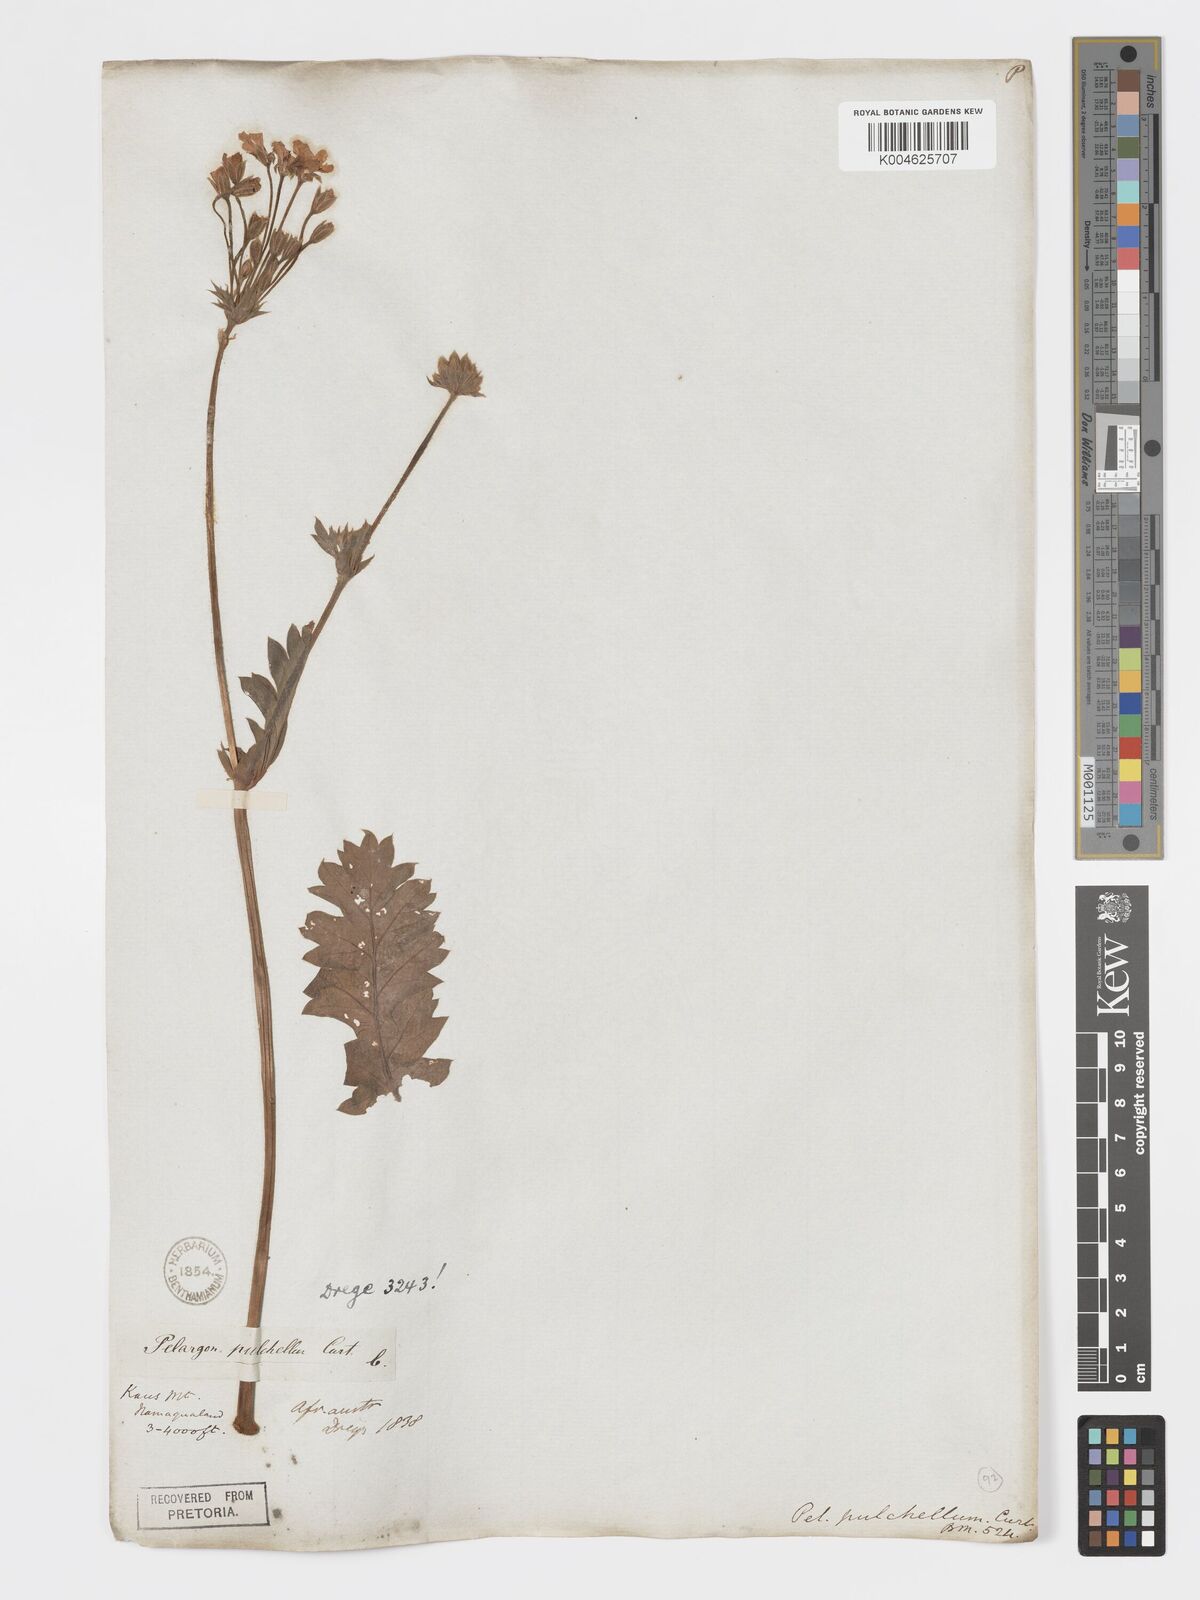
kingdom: Plantae
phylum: Tracheophyta
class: Magnoliopsida
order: Geraniales
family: Geraniaceae
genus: Pelargonium
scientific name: Pelargonium
